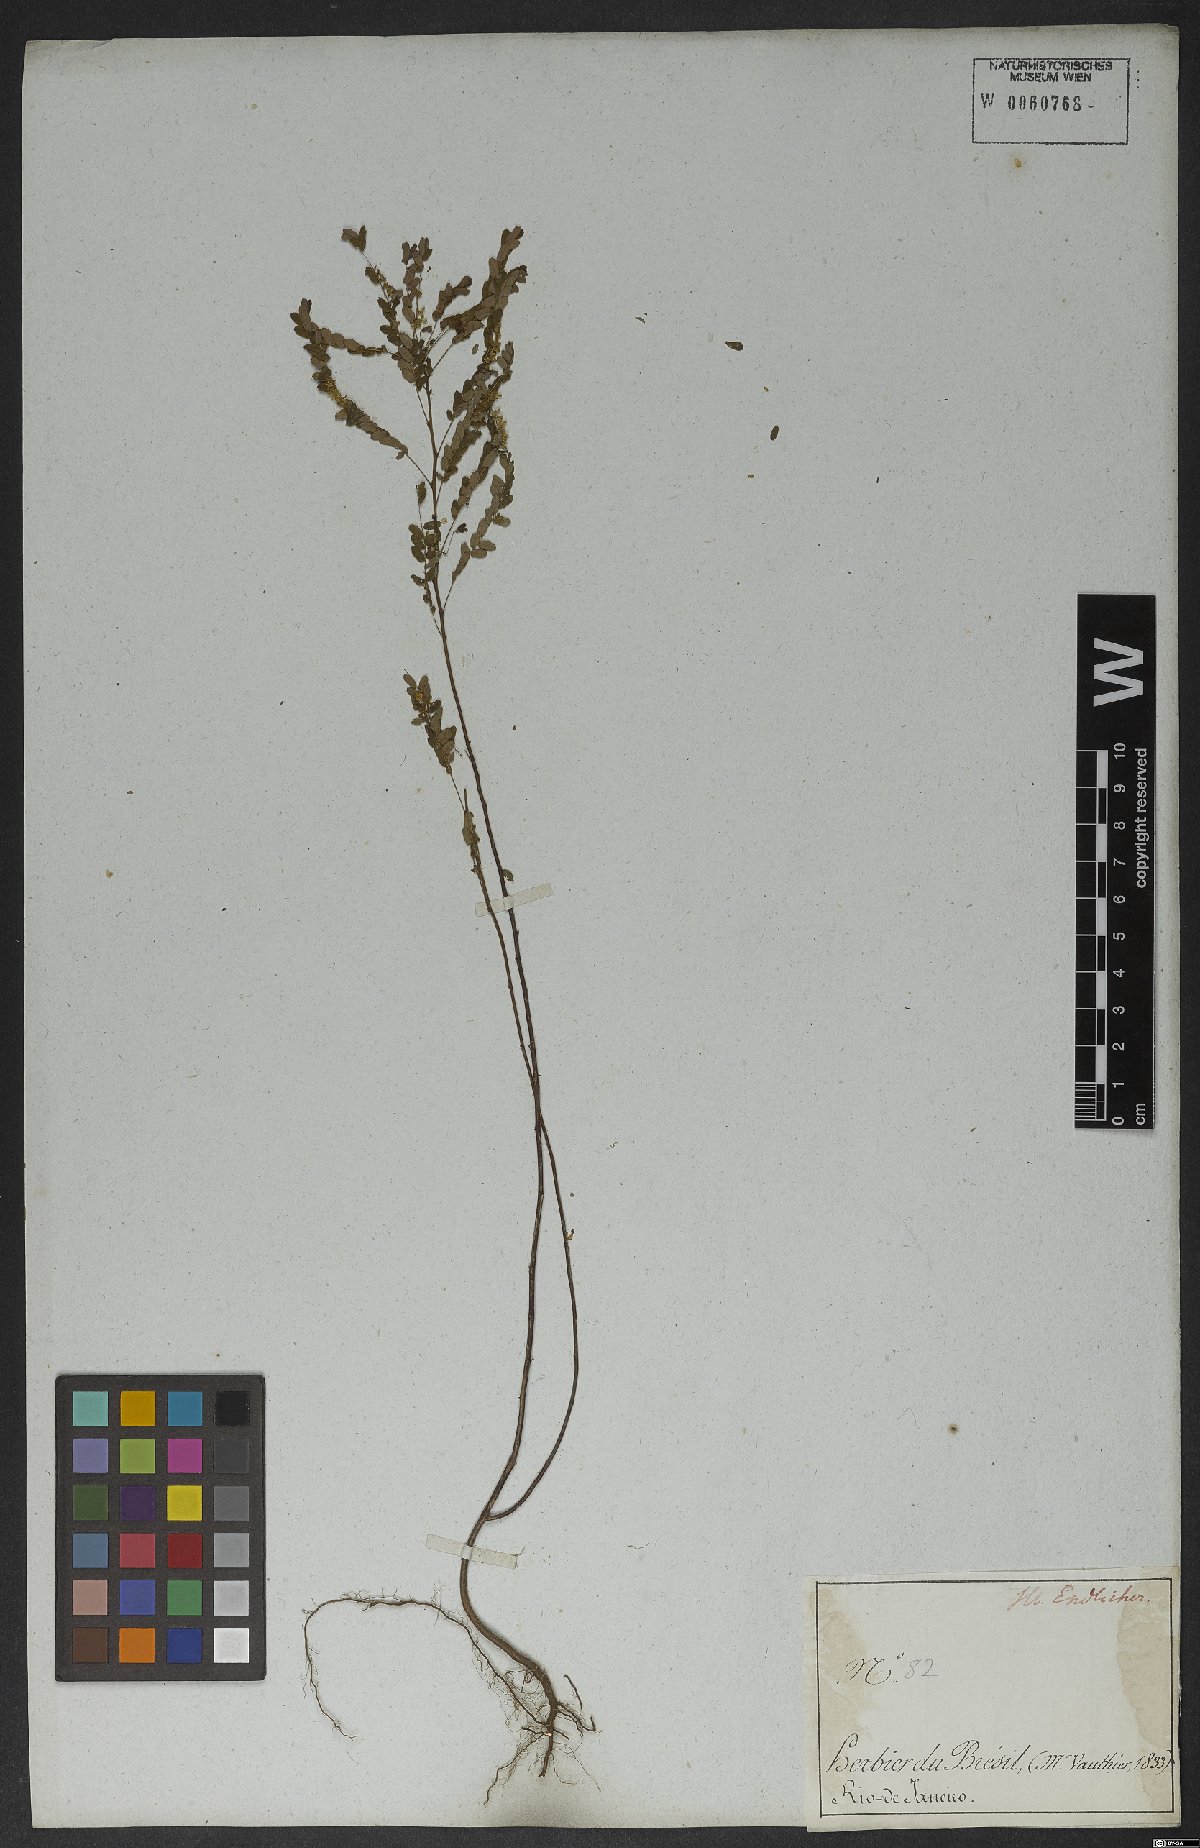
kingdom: Plantae
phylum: Tracheophyta
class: Magnoliopsida
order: Malpighiales
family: Phyllanthaceae
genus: Phyllanthus
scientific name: Phyllanthus niruri
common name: Niruri
